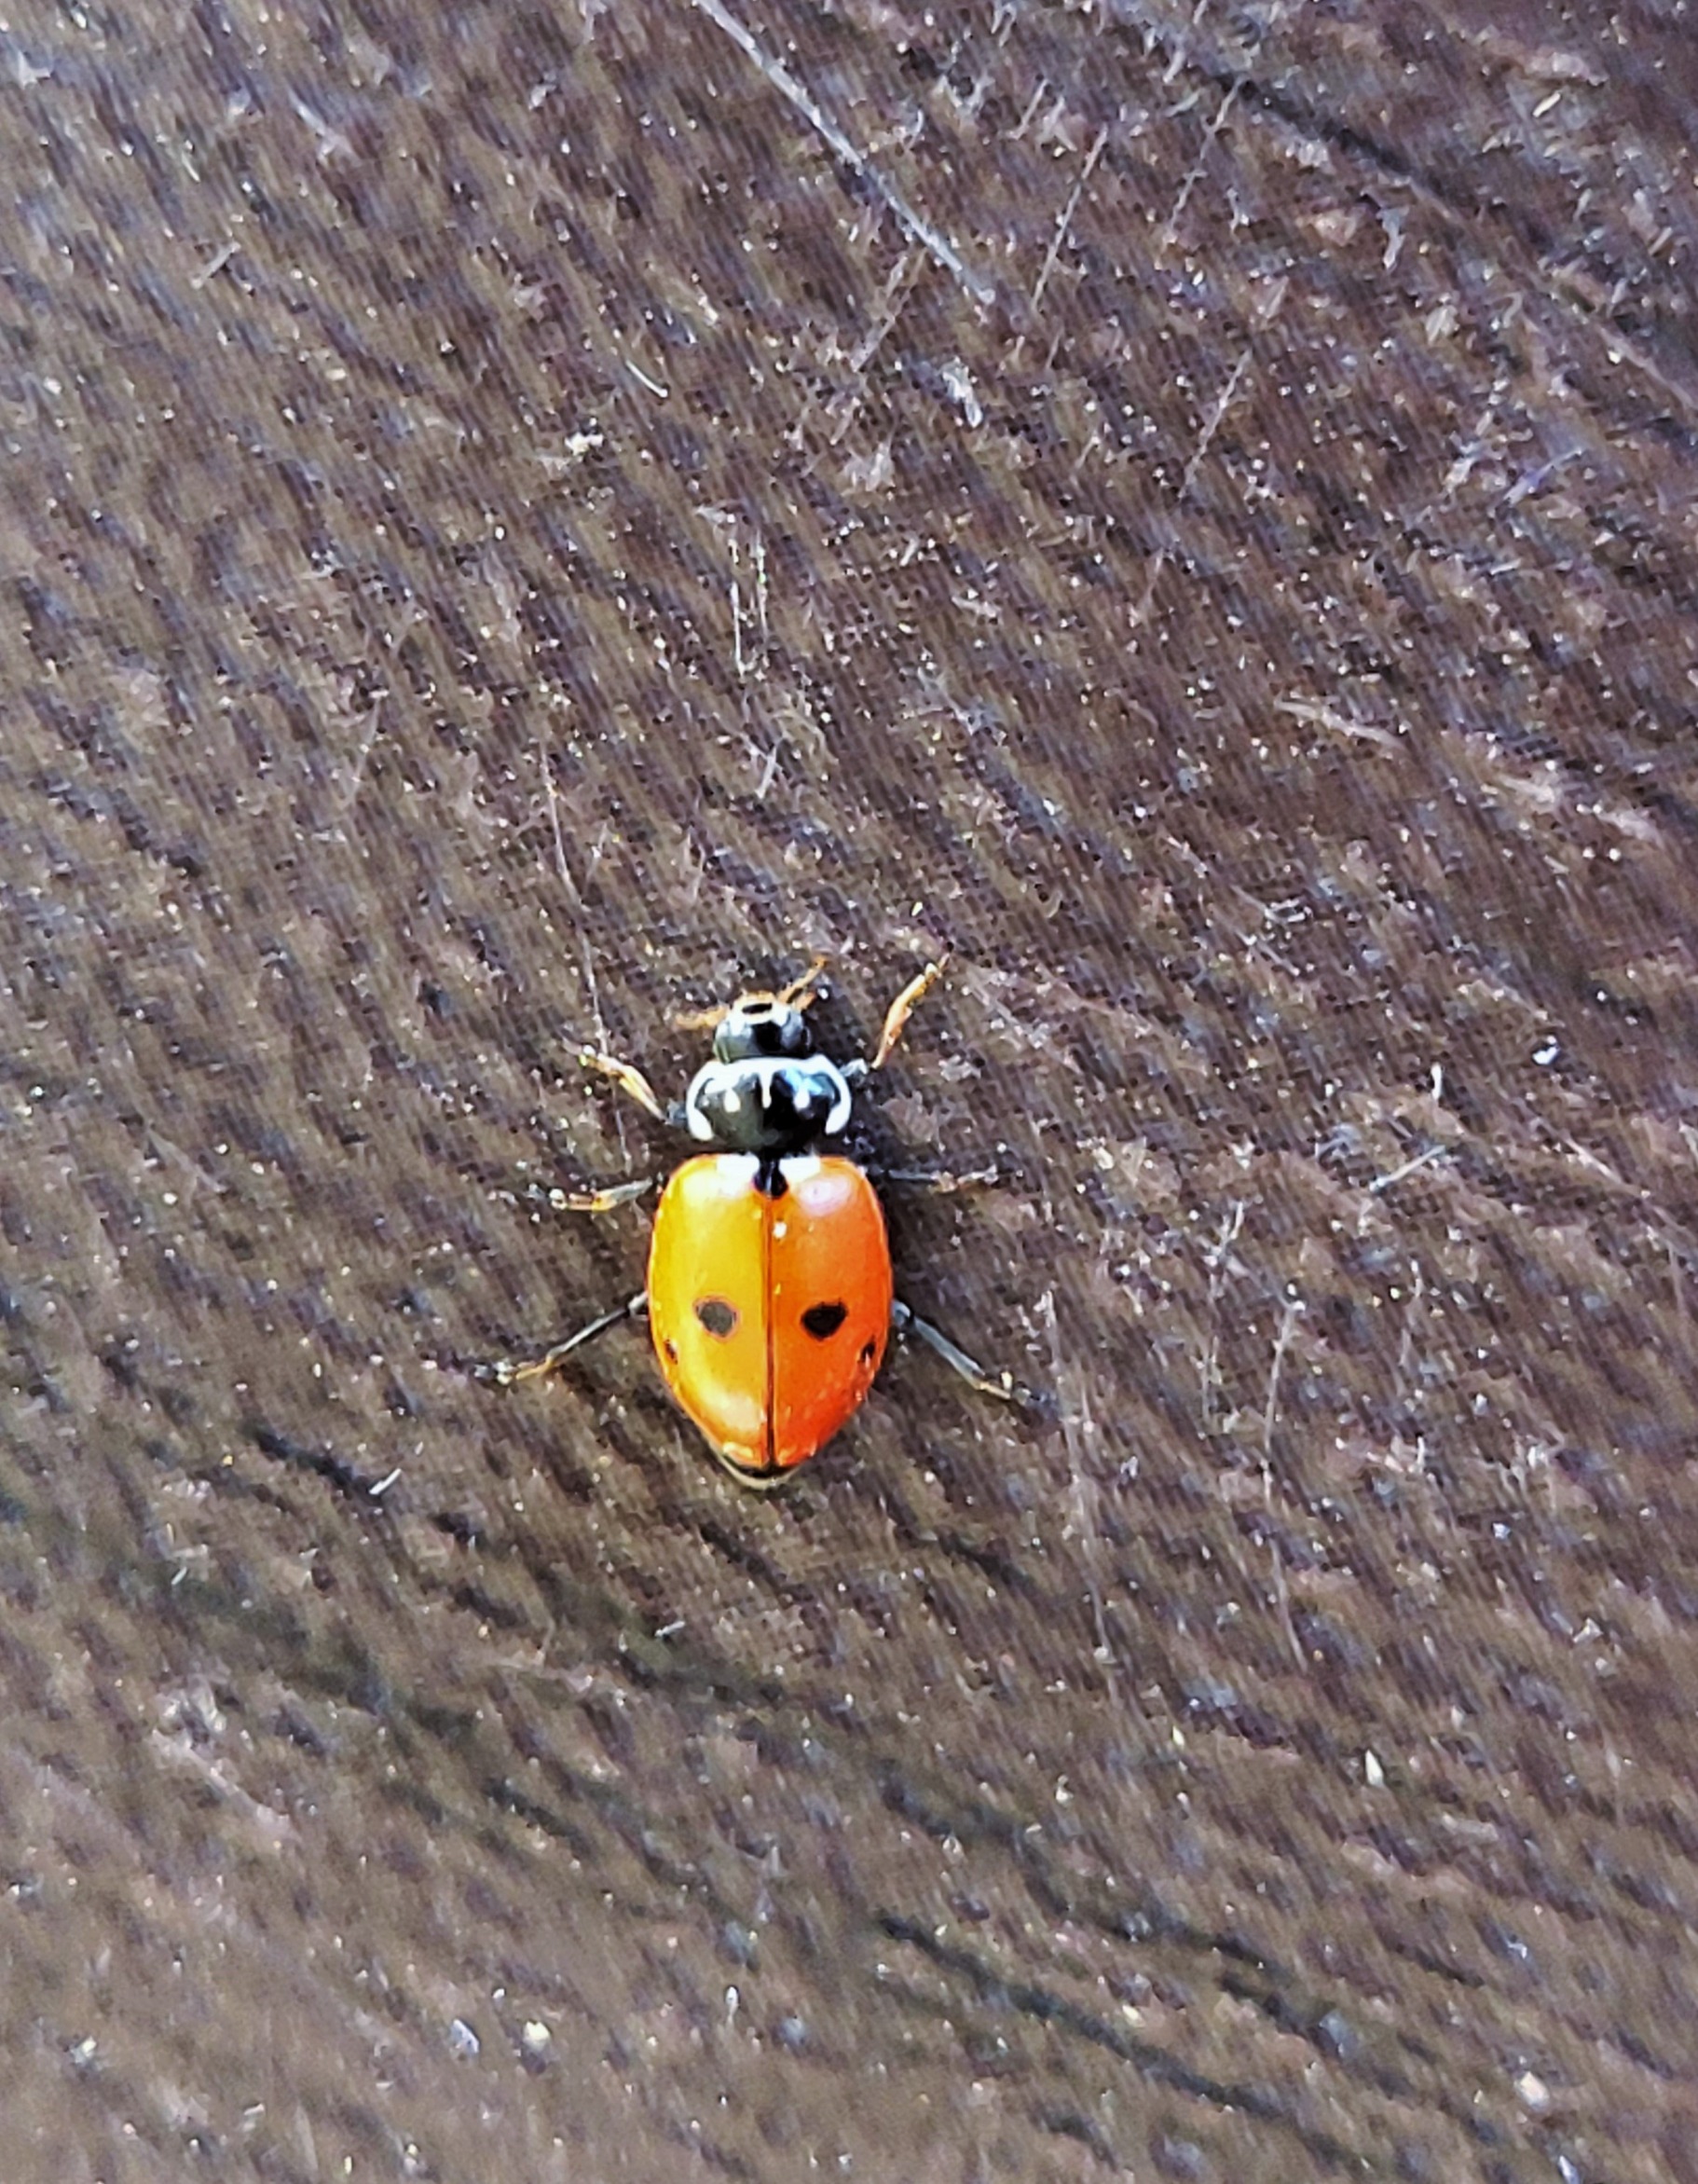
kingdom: Animalia
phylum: Arthropoda
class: Insecta
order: Coleoptera
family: Coccinellidae
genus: Hippodamia
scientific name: Hippodamia variegata
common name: Adonis' mariehøne
